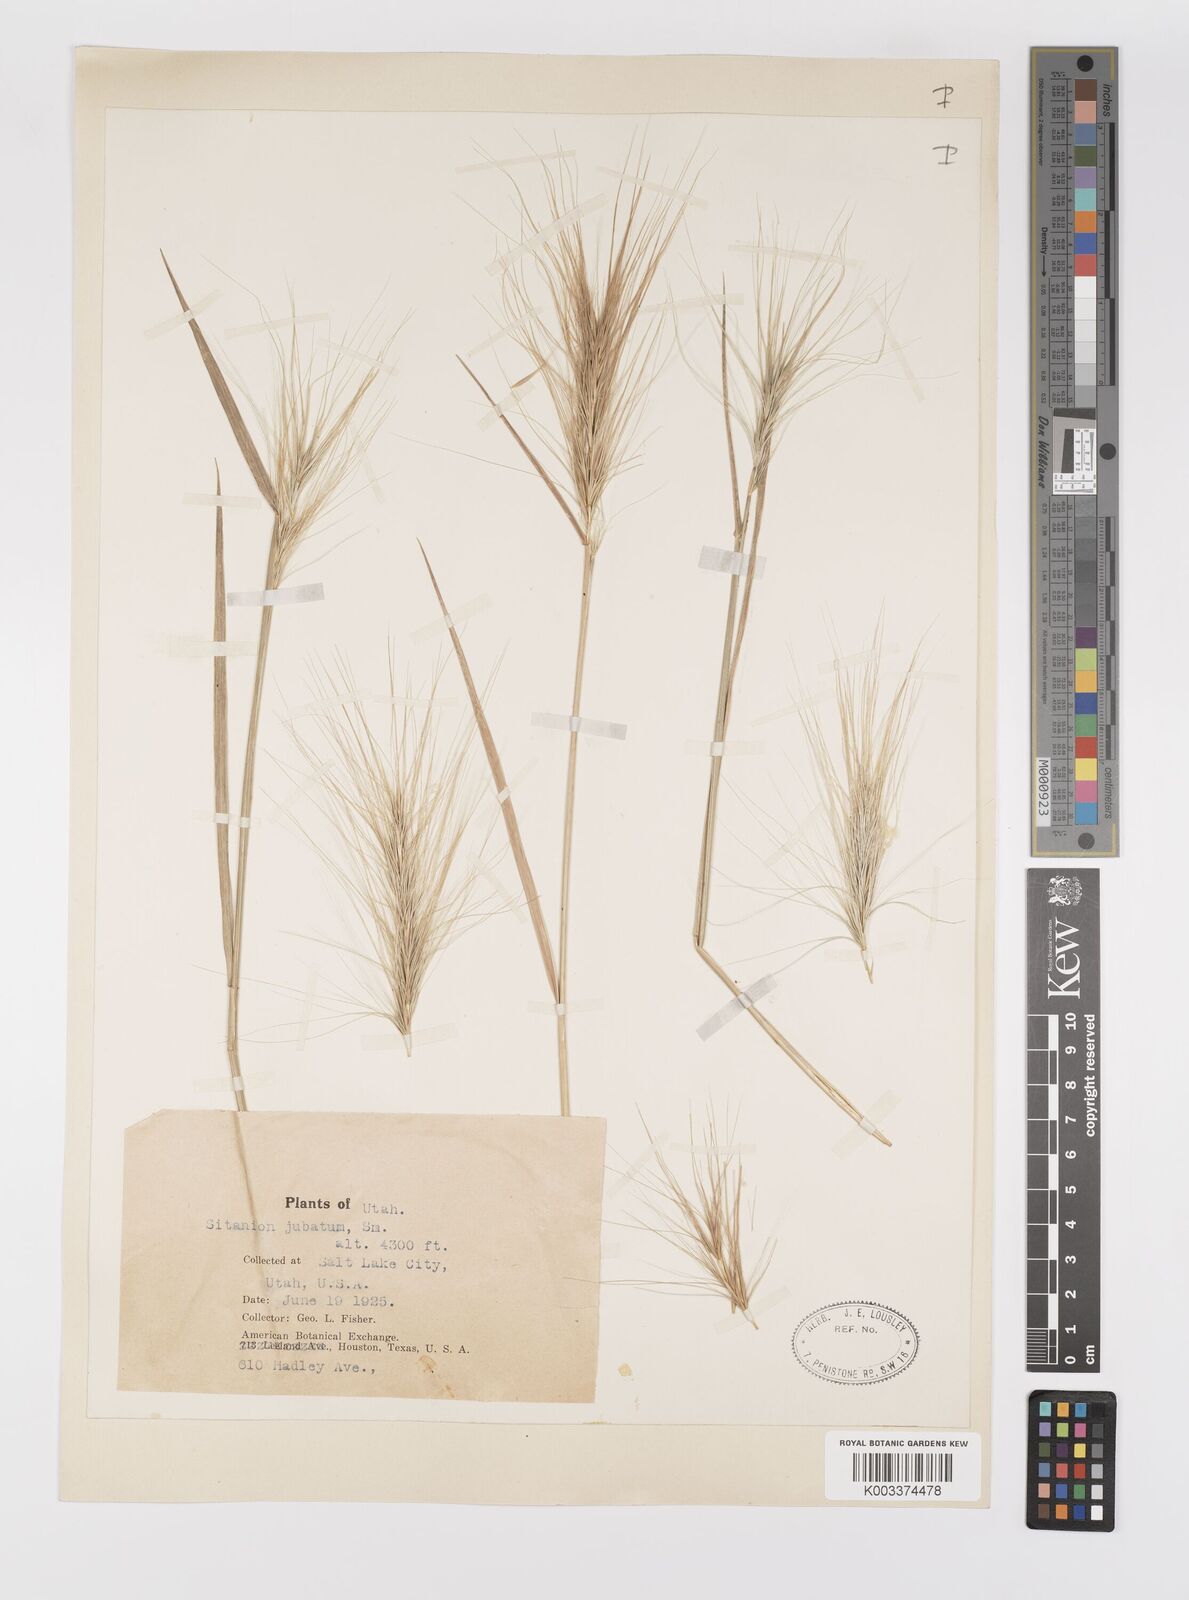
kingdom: Plantae
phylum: Tracheophyta
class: Liliopsida
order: Poales
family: Poaceae
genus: Elymus
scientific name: Elymus multisetus
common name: Big squirreltail
